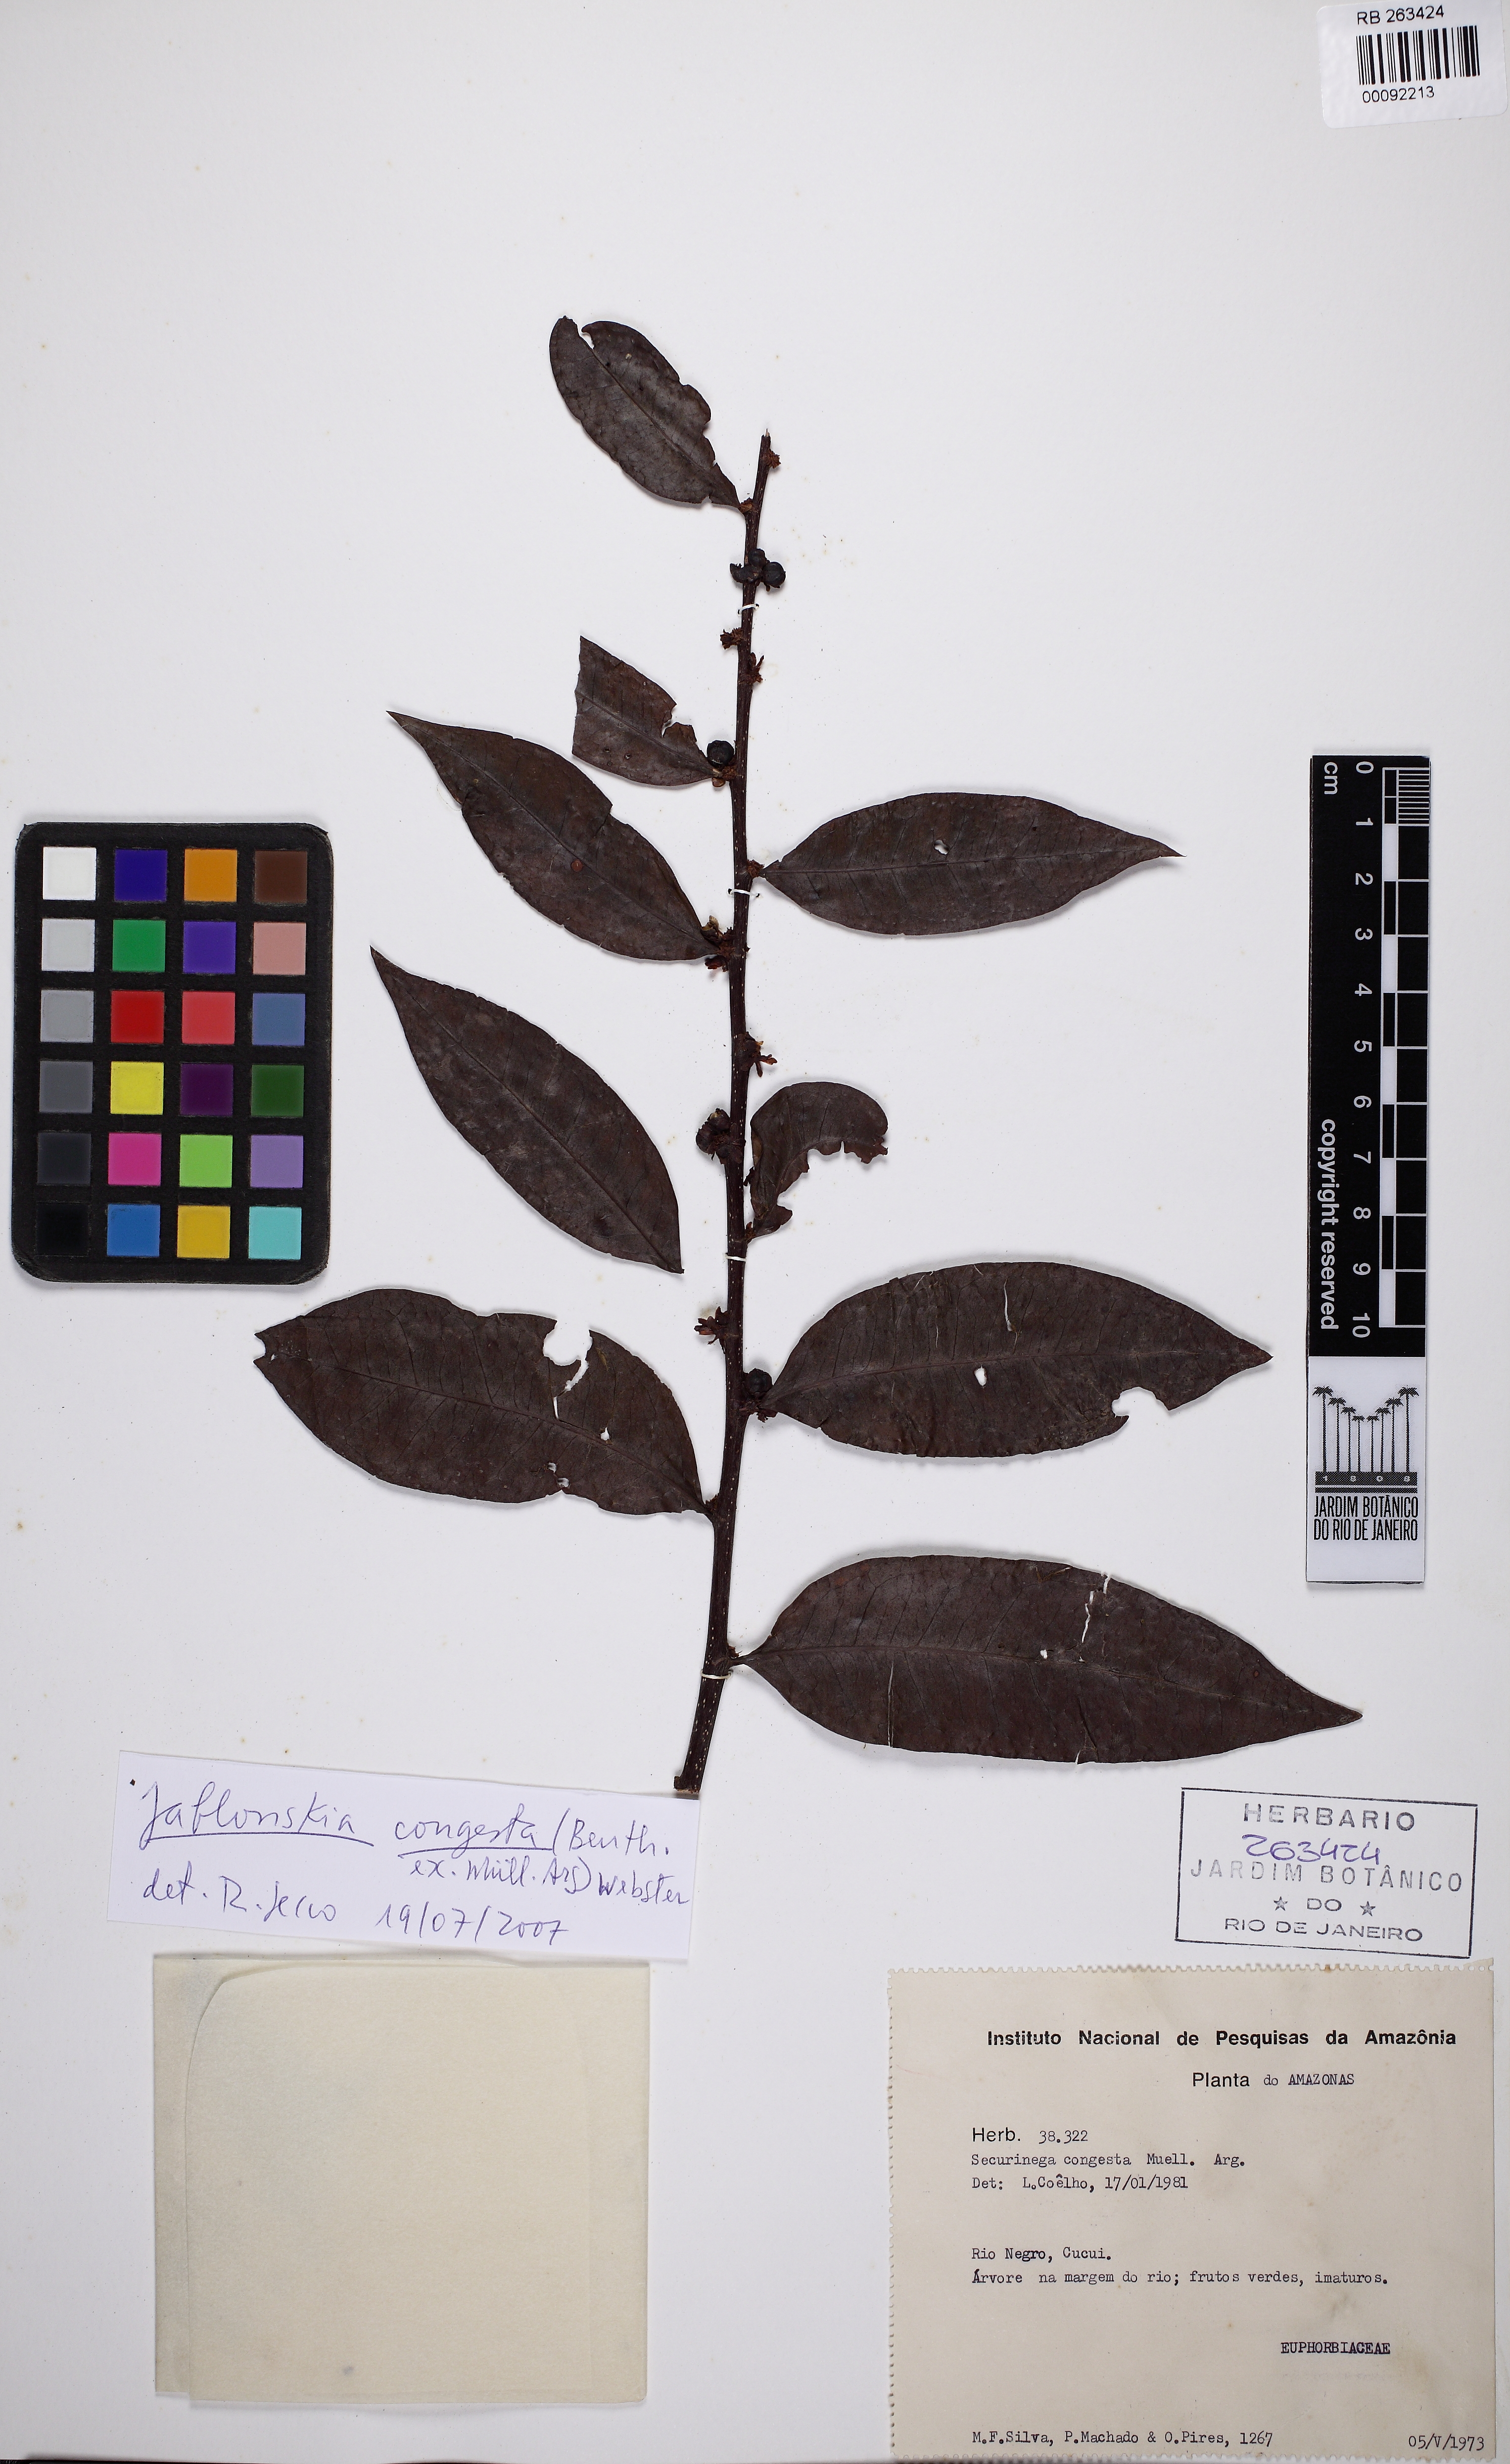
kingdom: Plantae
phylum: Tracheophyta
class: Magnoliopsida
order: Malpighiales
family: Phyllanthaceae
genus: Jablonskia
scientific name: Jablonskia congesta
